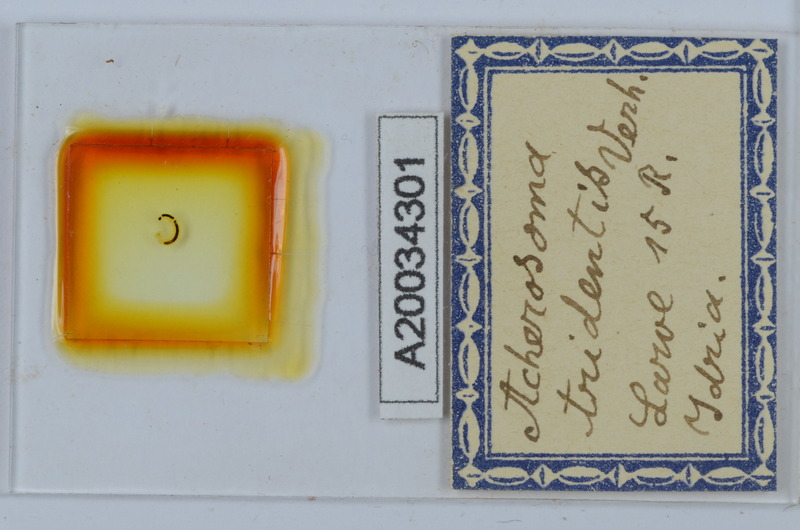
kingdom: Animalia
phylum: Arthropoda
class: Diplopoda
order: Chordeumatida
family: Anthogonidae
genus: Haasia
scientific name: Haasia tridentis
